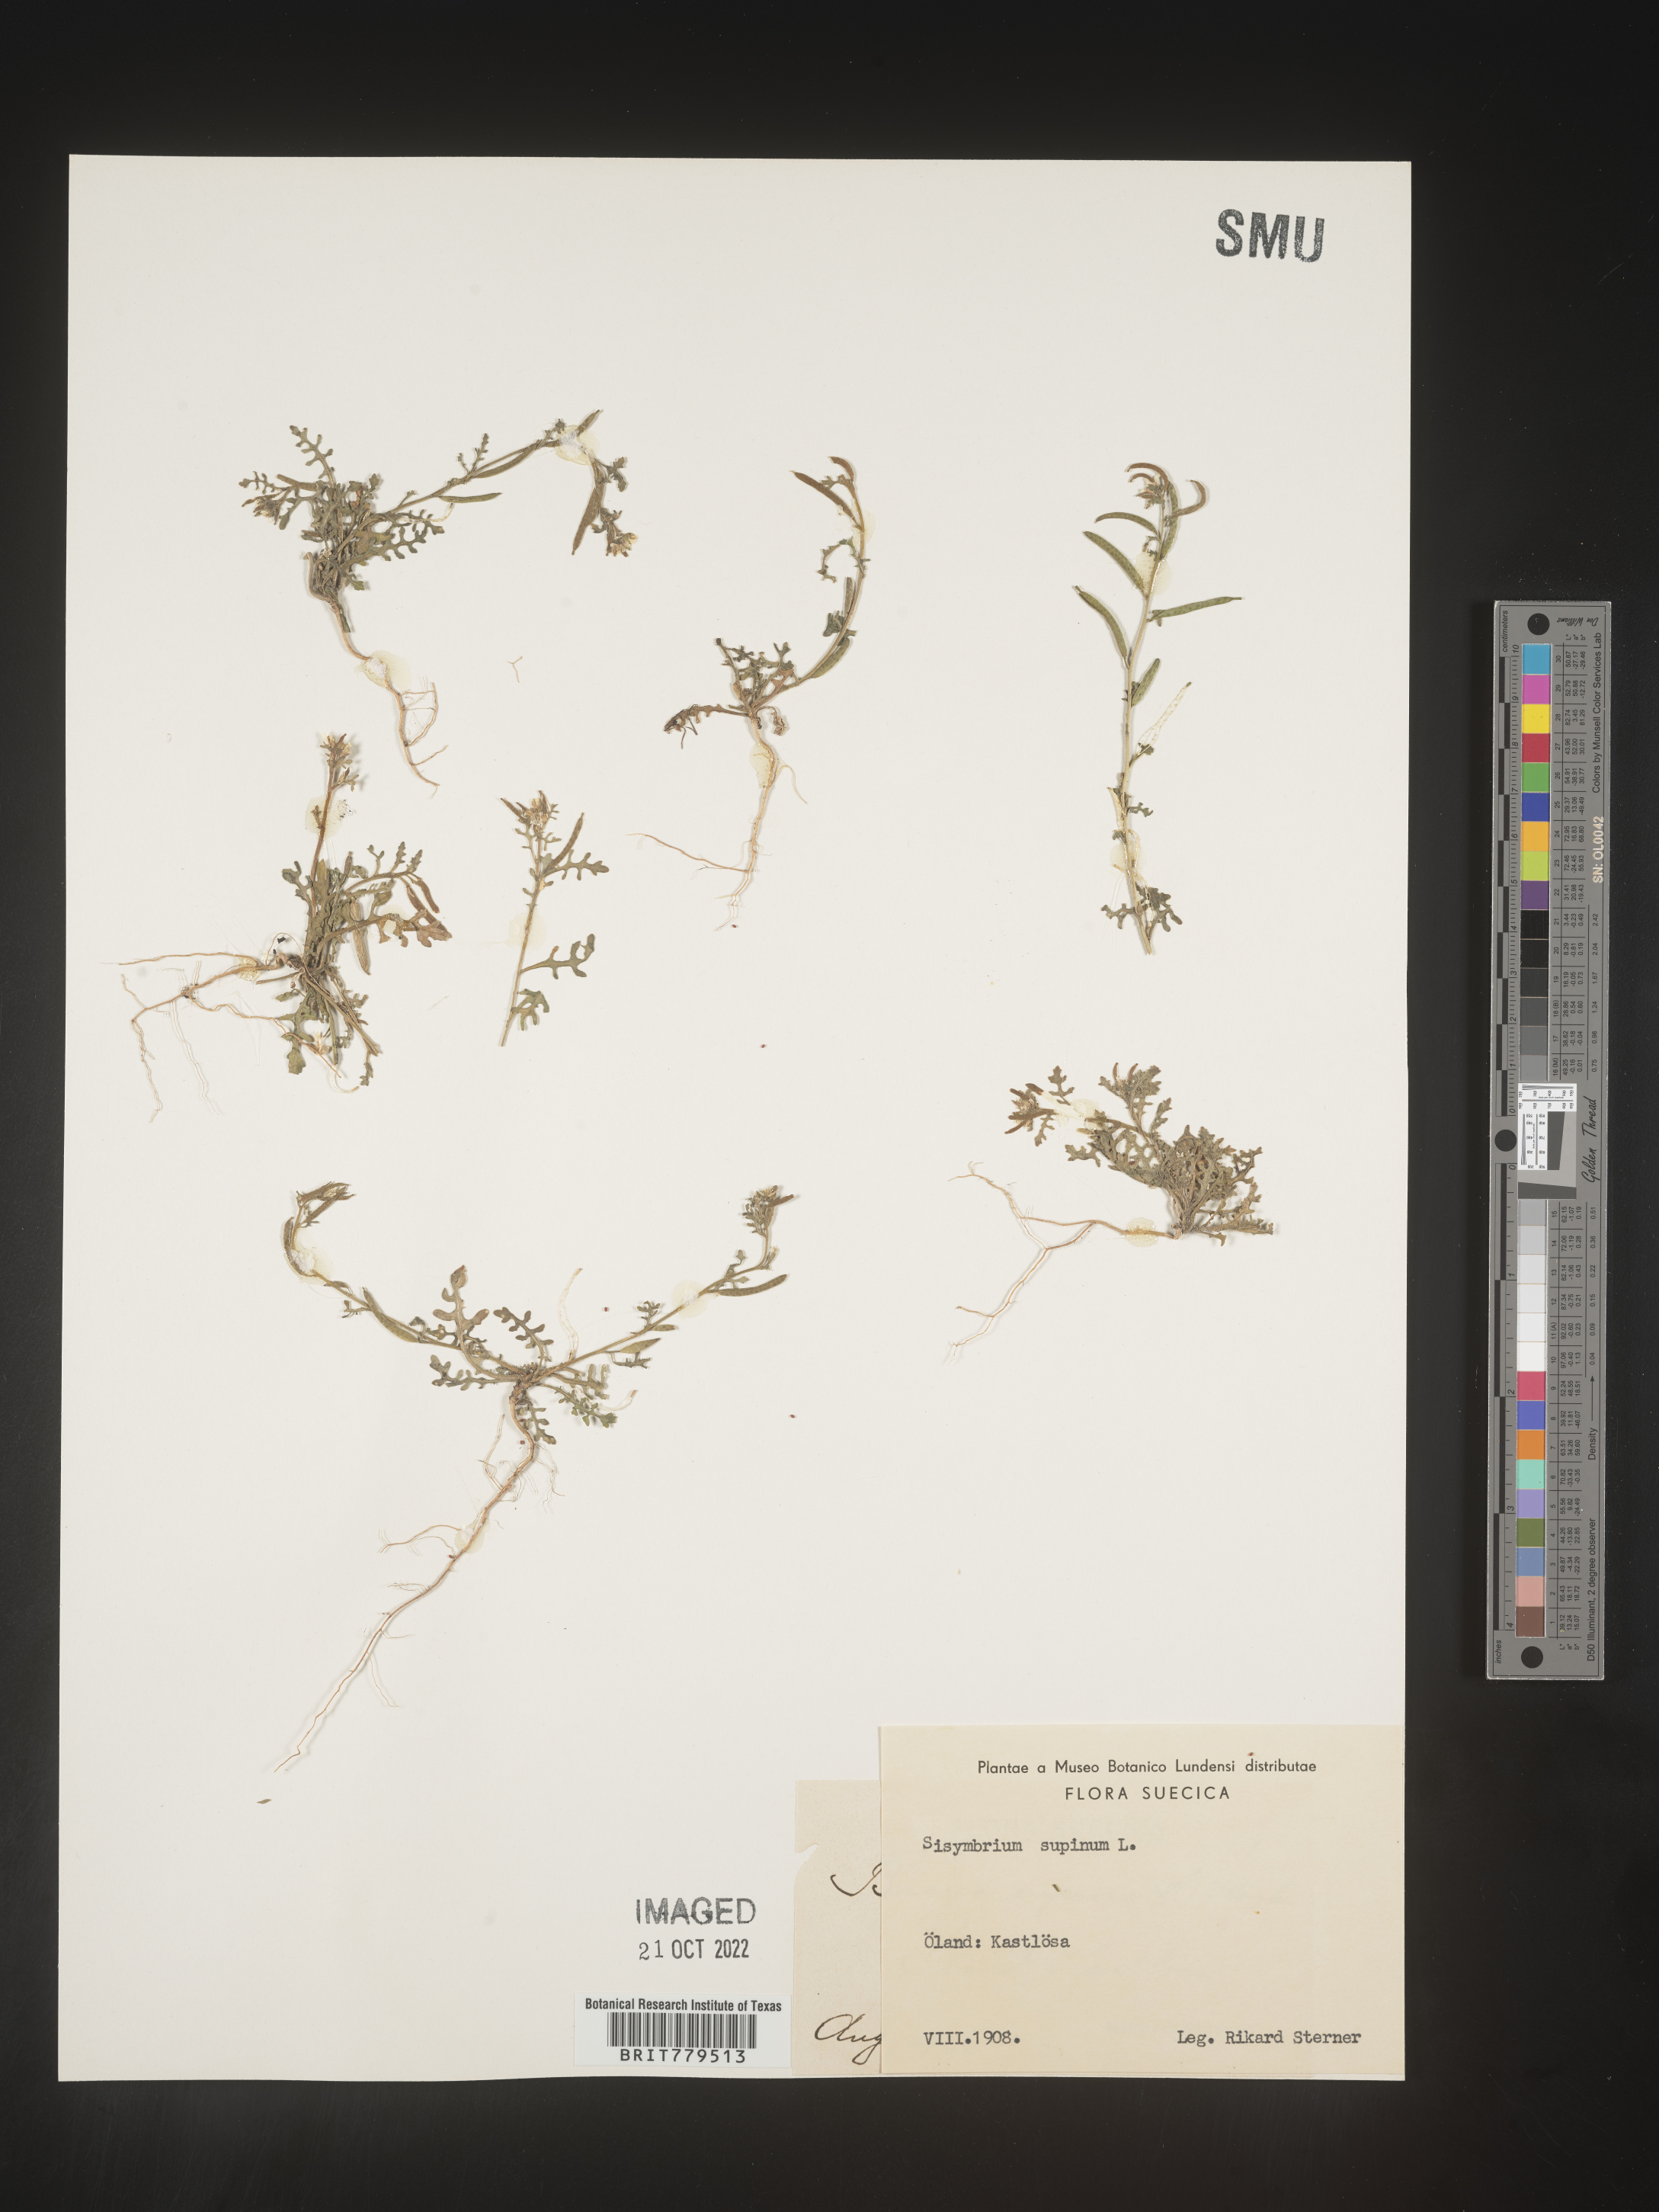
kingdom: Plantae
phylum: Tracheophyta
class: Magnoliopsida
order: Brassicales
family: Brassicaceae
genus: Sisymbrium
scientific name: Sisymbrium
